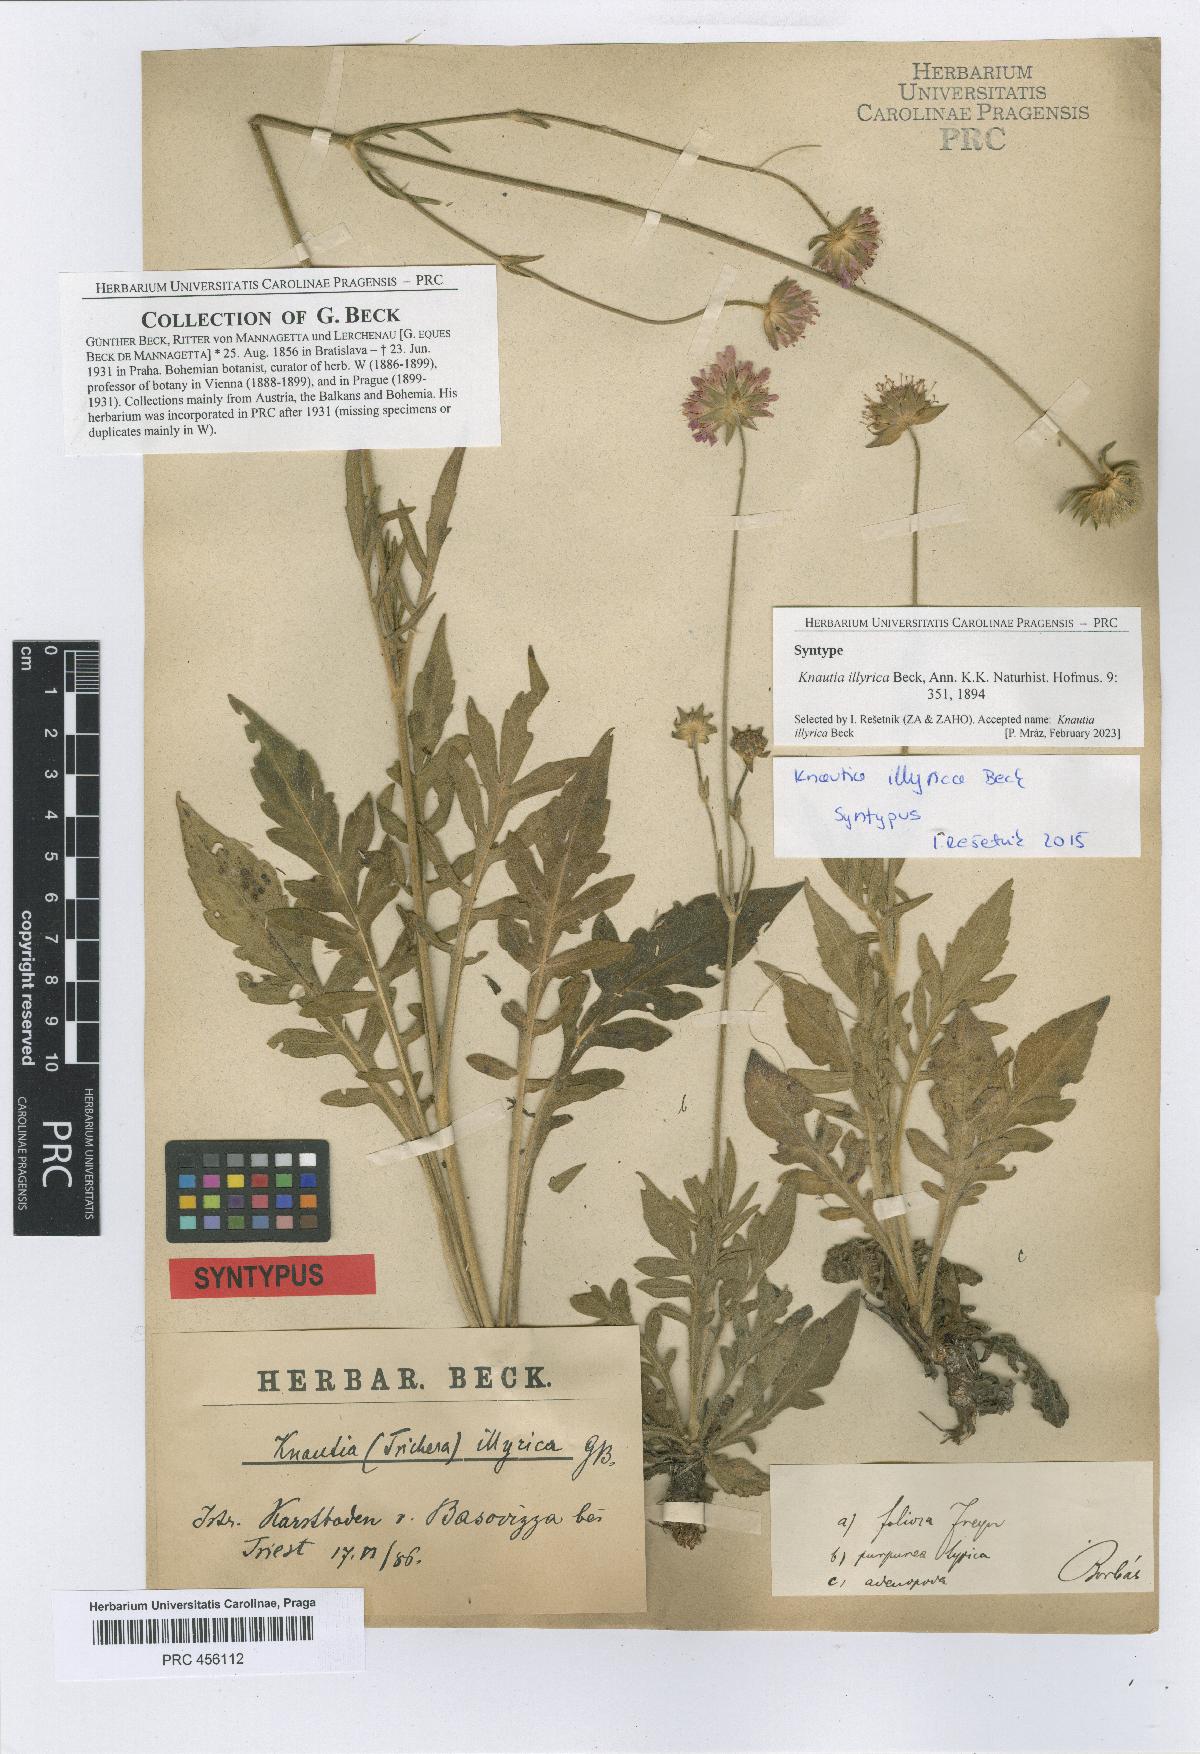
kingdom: Plantae
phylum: Tracheophyta
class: Magnoliopsida
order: Dipsacales
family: Caprifoliaceae
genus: Knautia
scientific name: Knautia illyrica
